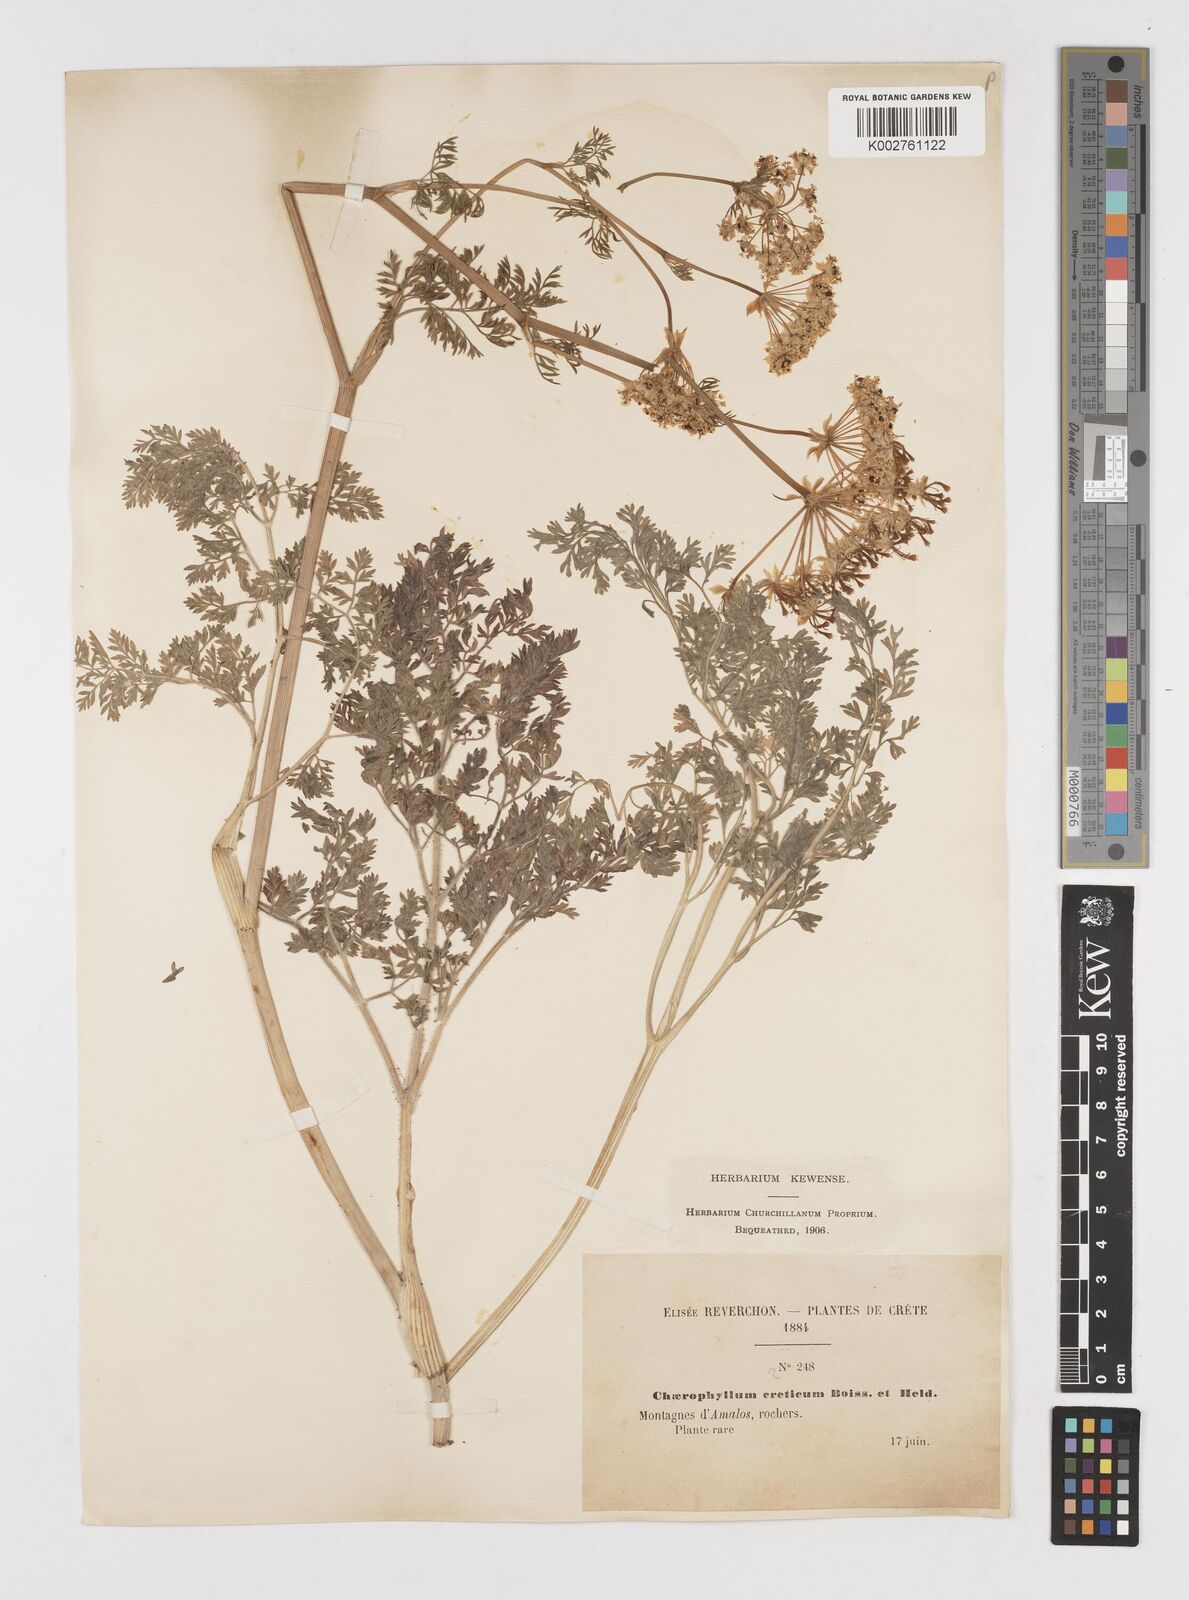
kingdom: Plantae
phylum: Tracheophyta
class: Magnoliopsida
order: Apiales
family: Apiaceae
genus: Chaerophyllum
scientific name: Chaerophyllum creticum
